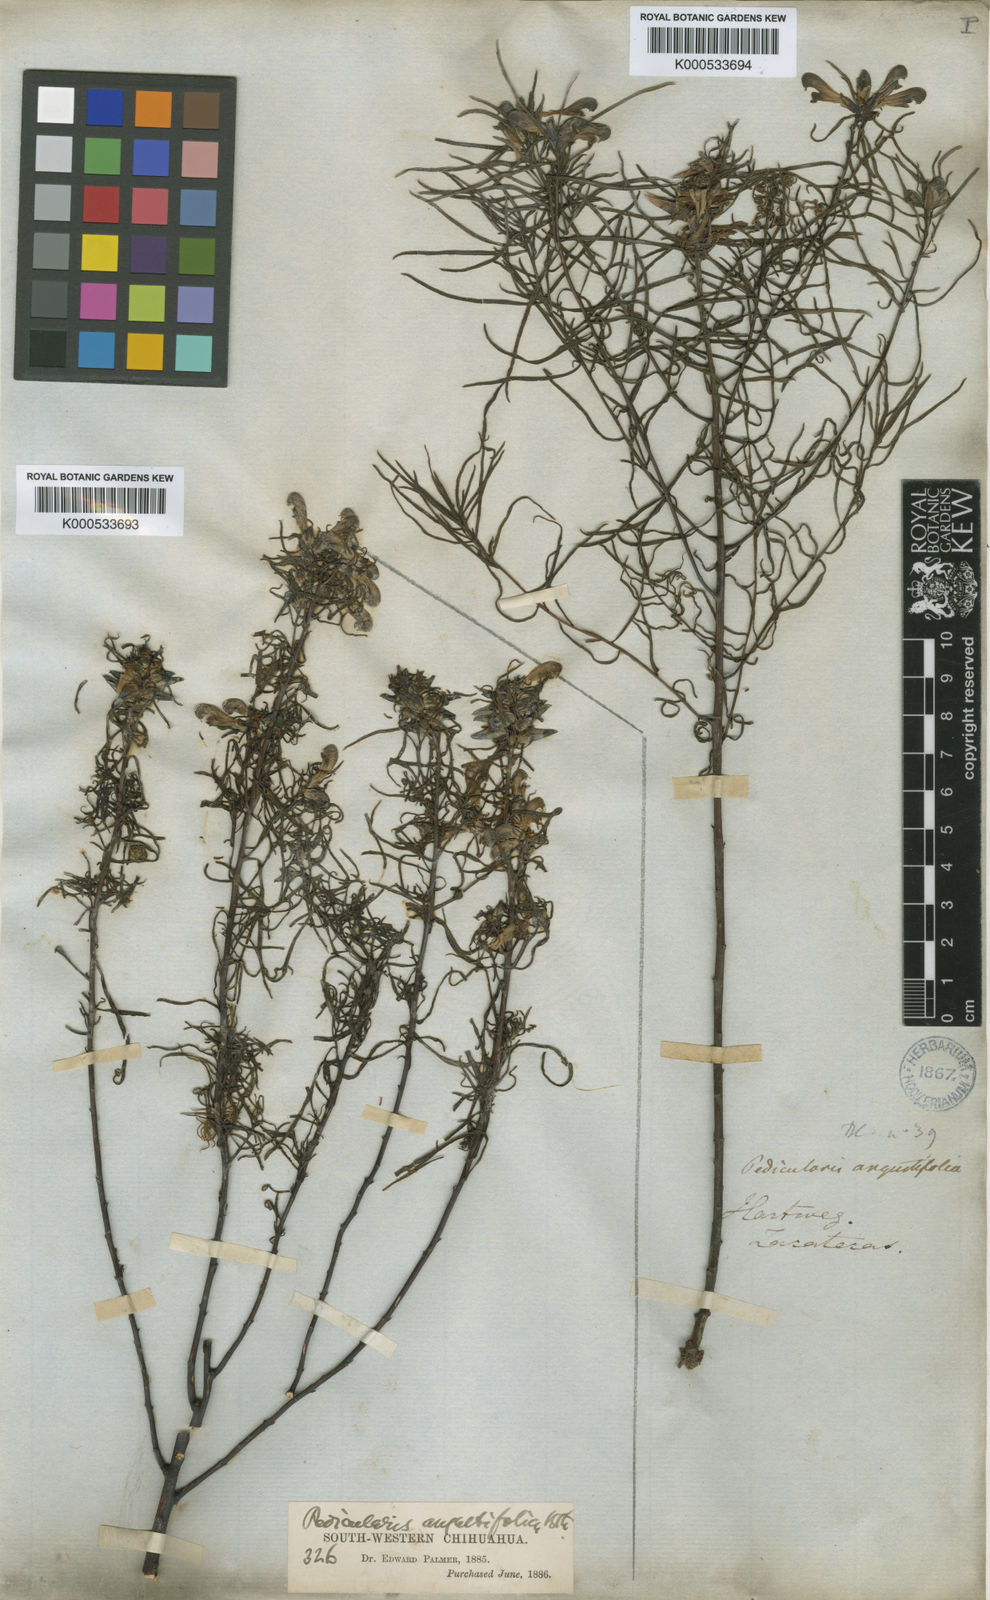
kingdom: Plantae
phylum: Tracheophyta
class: Magnoliopsida
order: Lamiales
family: Orobanchaceae
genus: Pedicularis
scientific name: Pedicularis angustifolia
